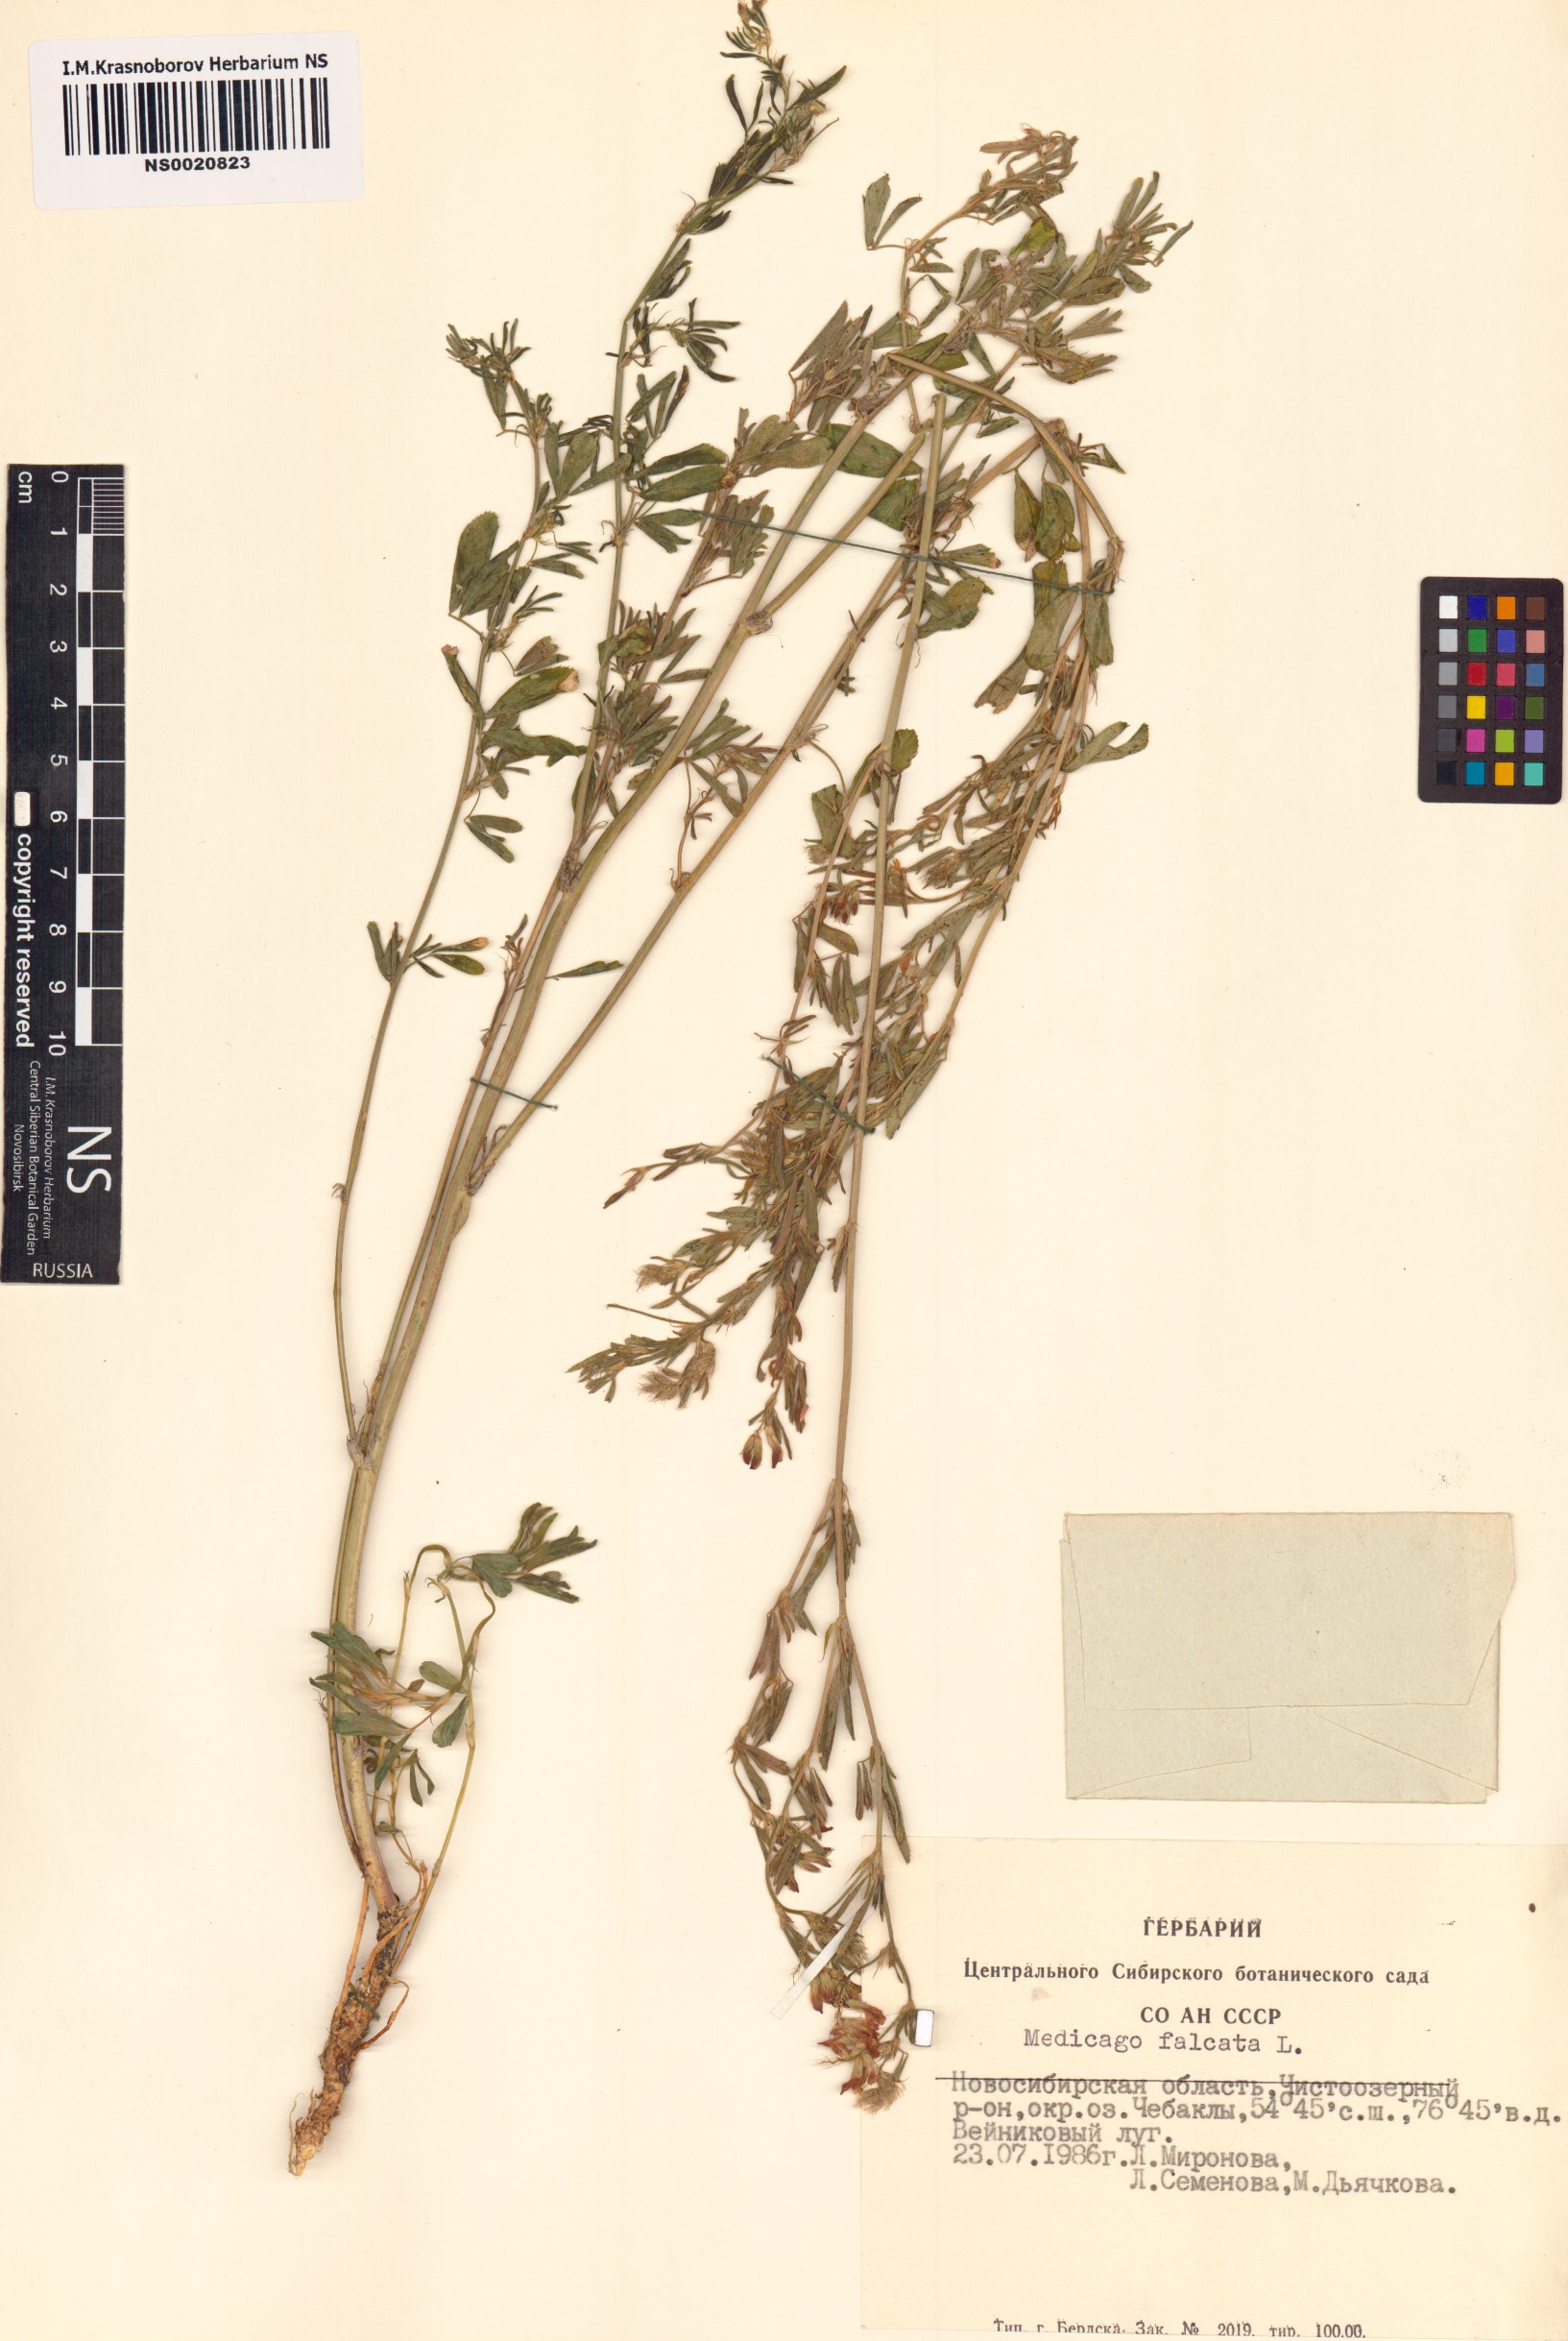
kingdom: Plantae
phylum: Tracheophyta
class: Magnoliopsida
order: Fabales
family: Fabaceae
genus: Medicago
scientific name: Medicago falcata
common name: Sickle medick
